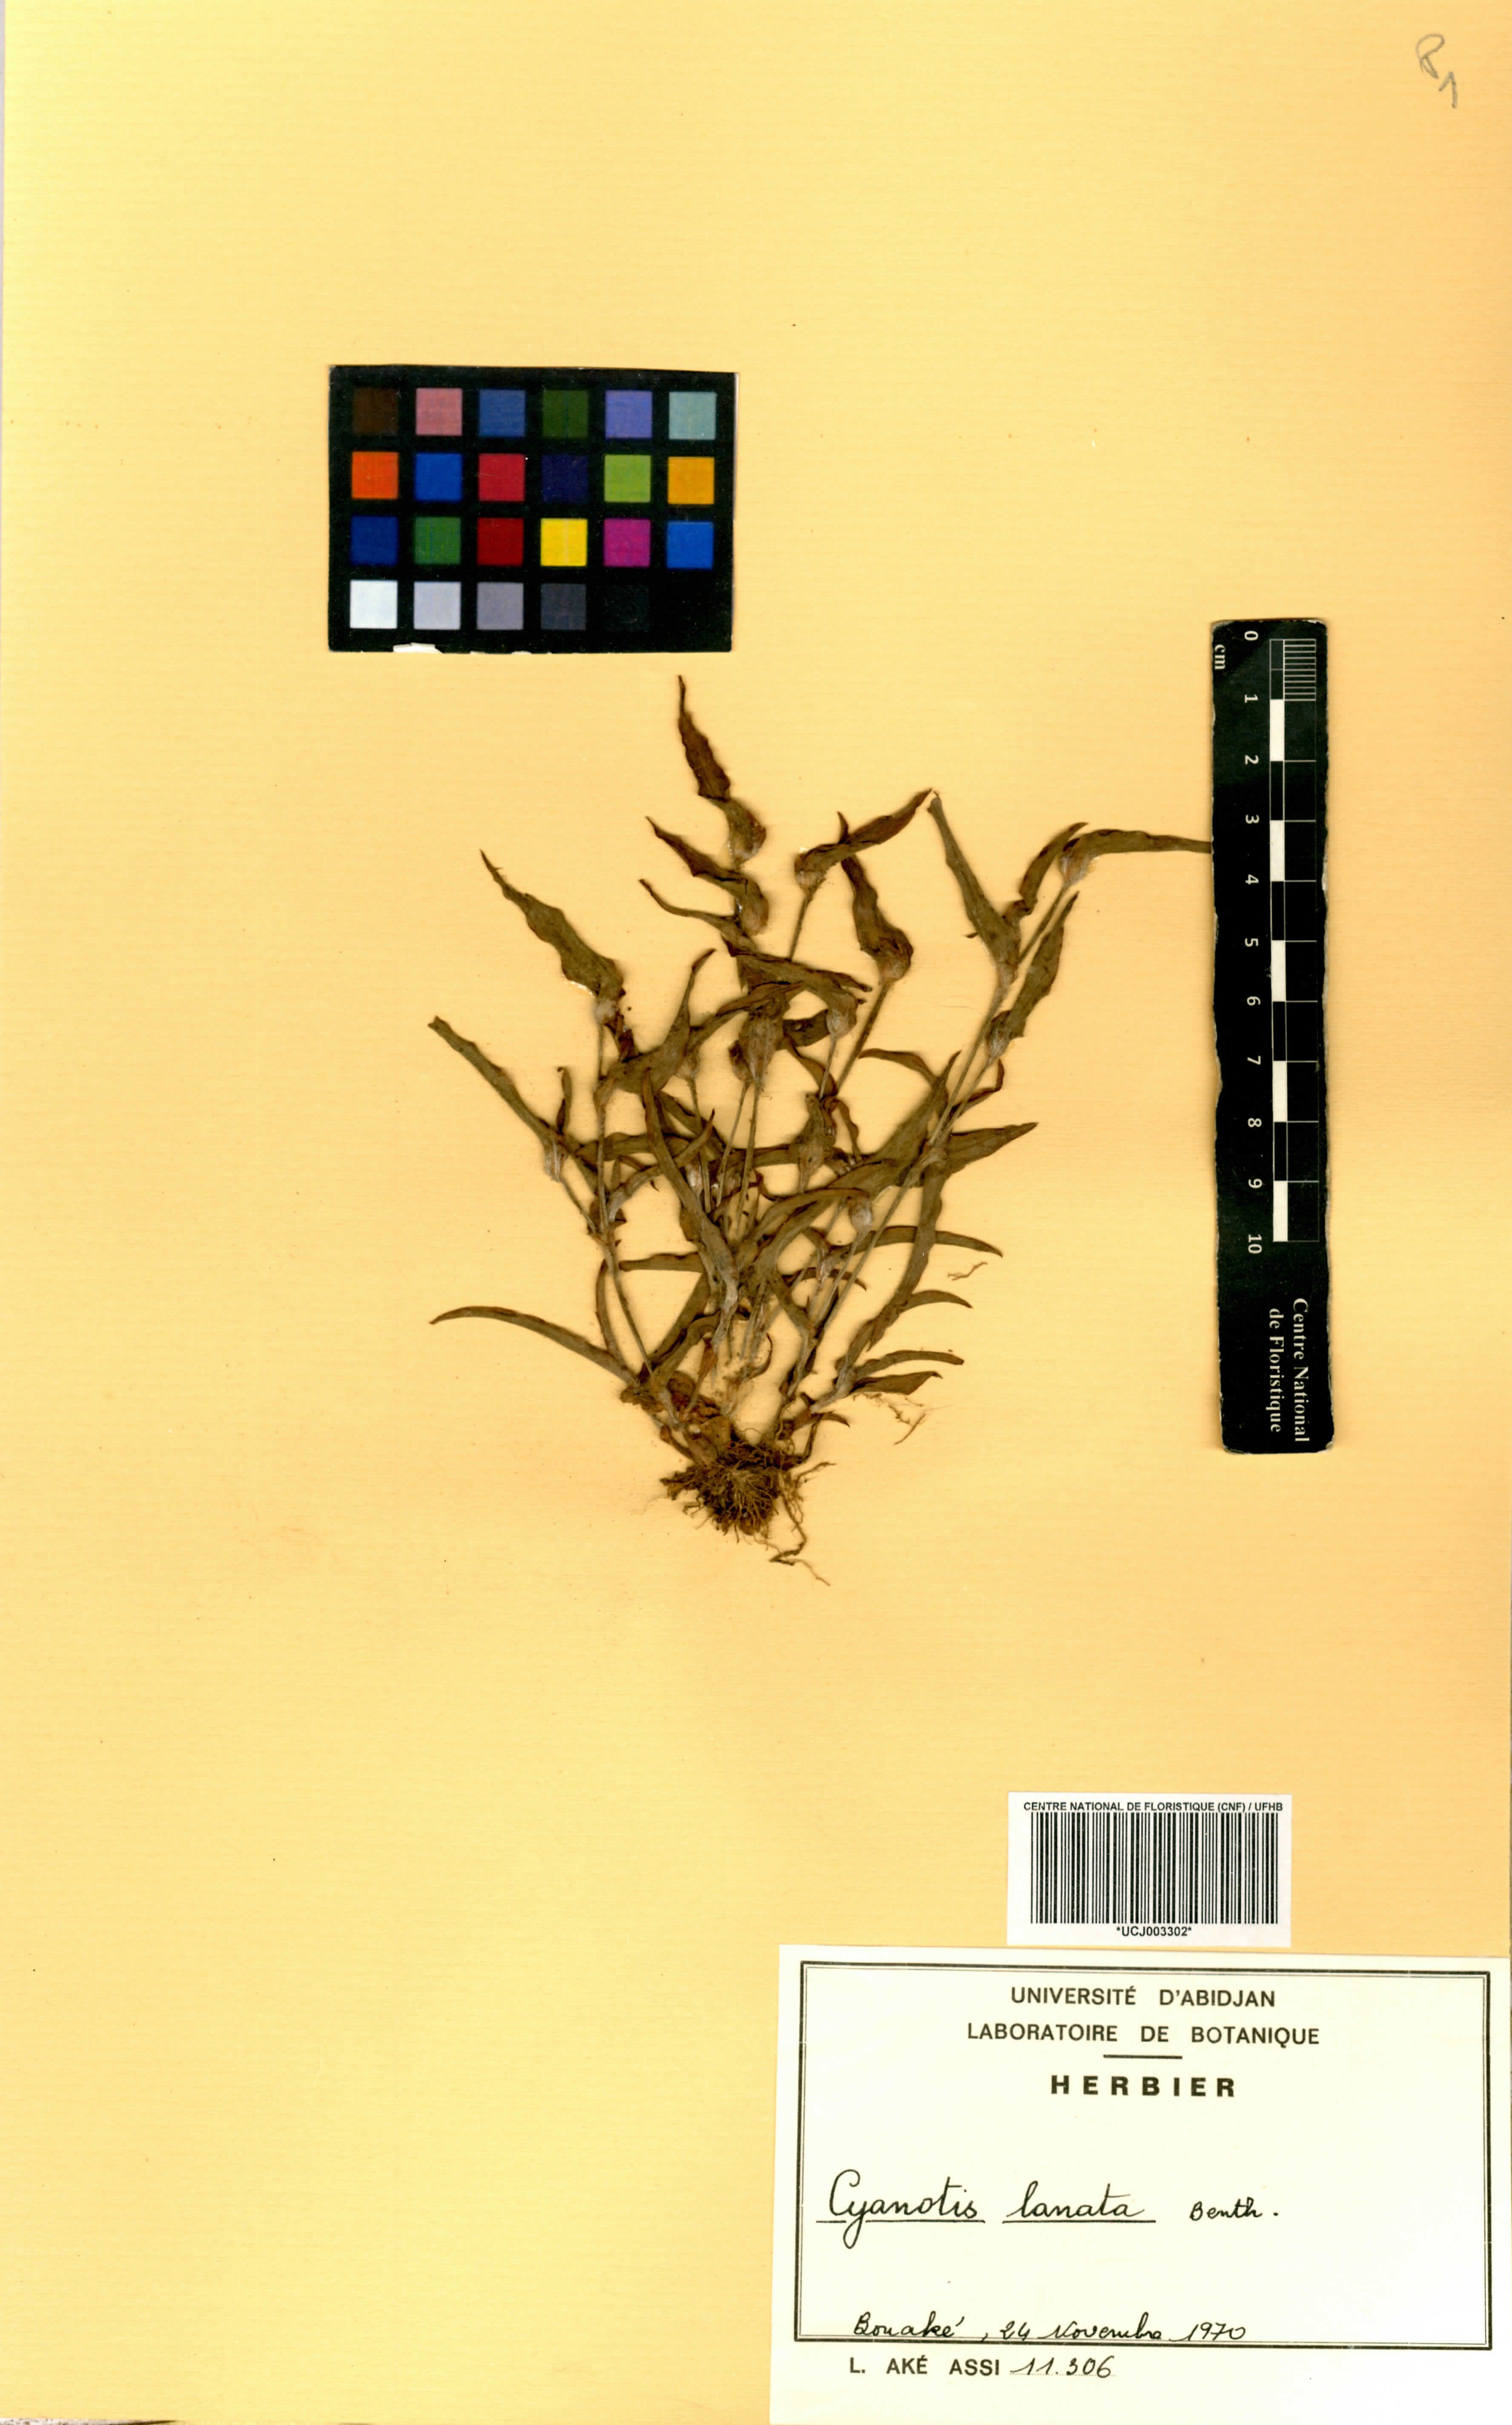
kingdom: Plantae
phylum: Tracheophyta
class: Liliopsida
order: Commelinales
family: Commelinaceae
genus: Cyanotis
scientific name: Cyanotis lanata
